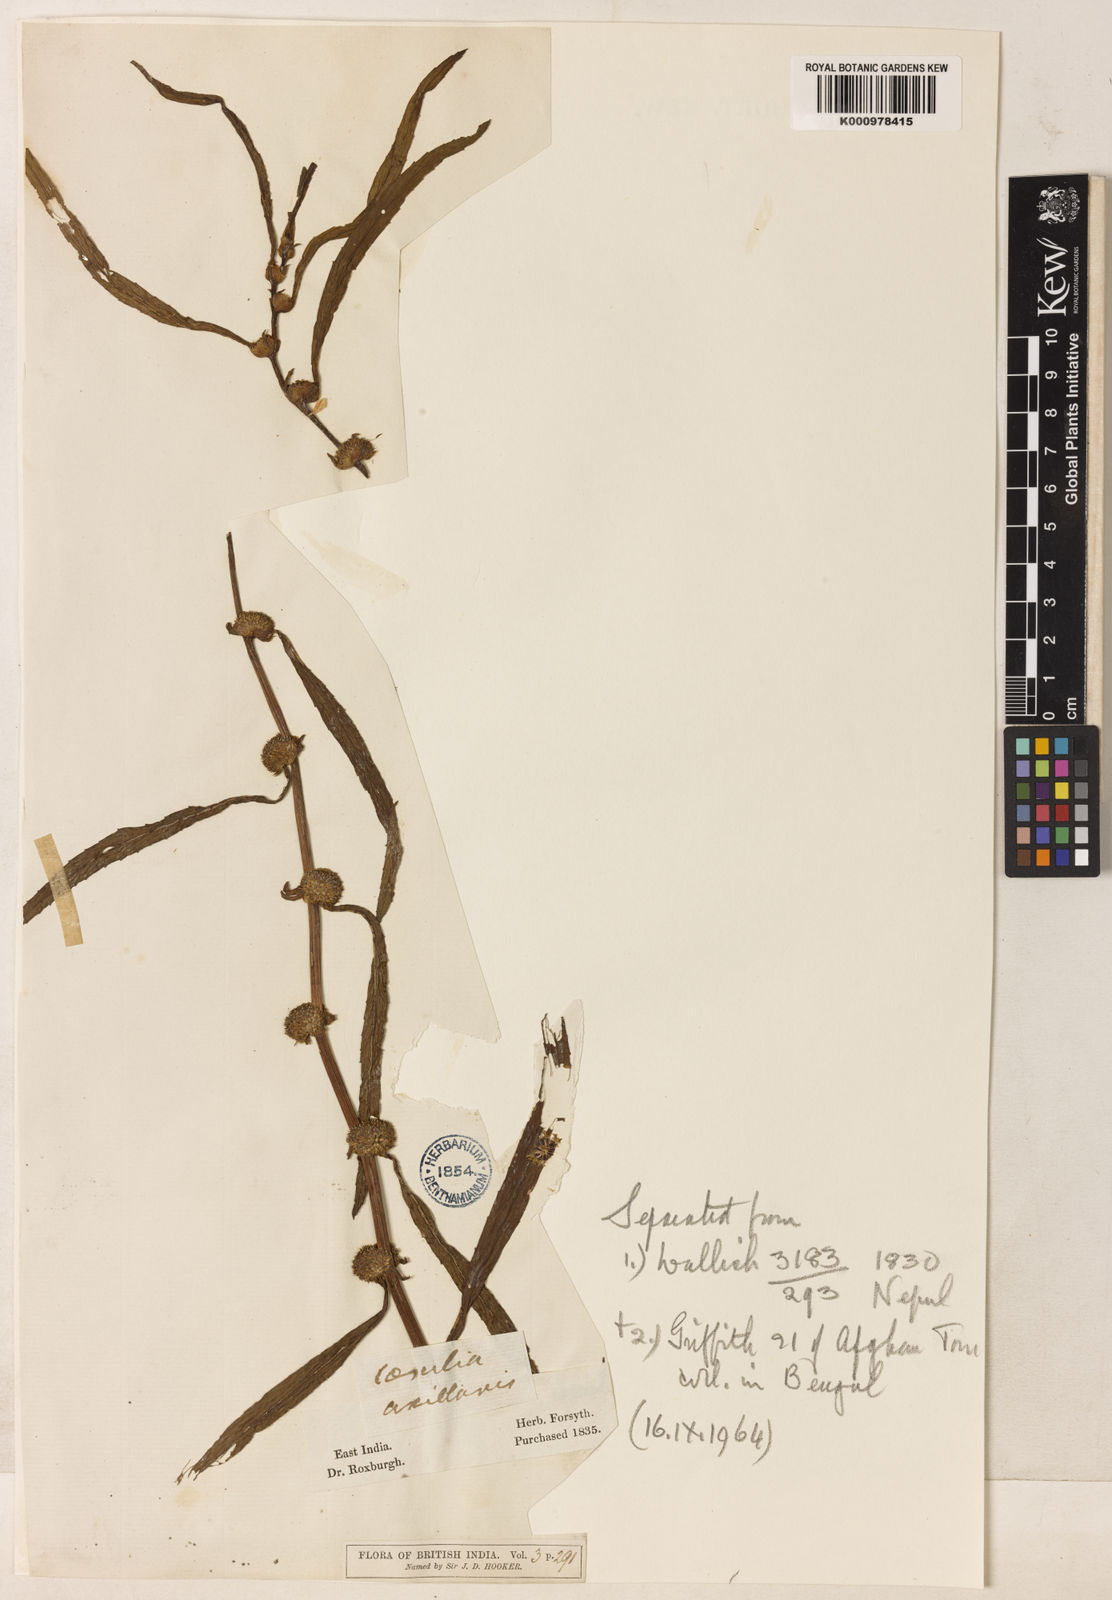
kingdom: Plantae
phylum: Tracheophyta
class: Magnoliopsida
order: Asterales
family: Asteraceae
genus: Caesulia
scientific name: Caesulia axillaris
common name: Pink node flower
